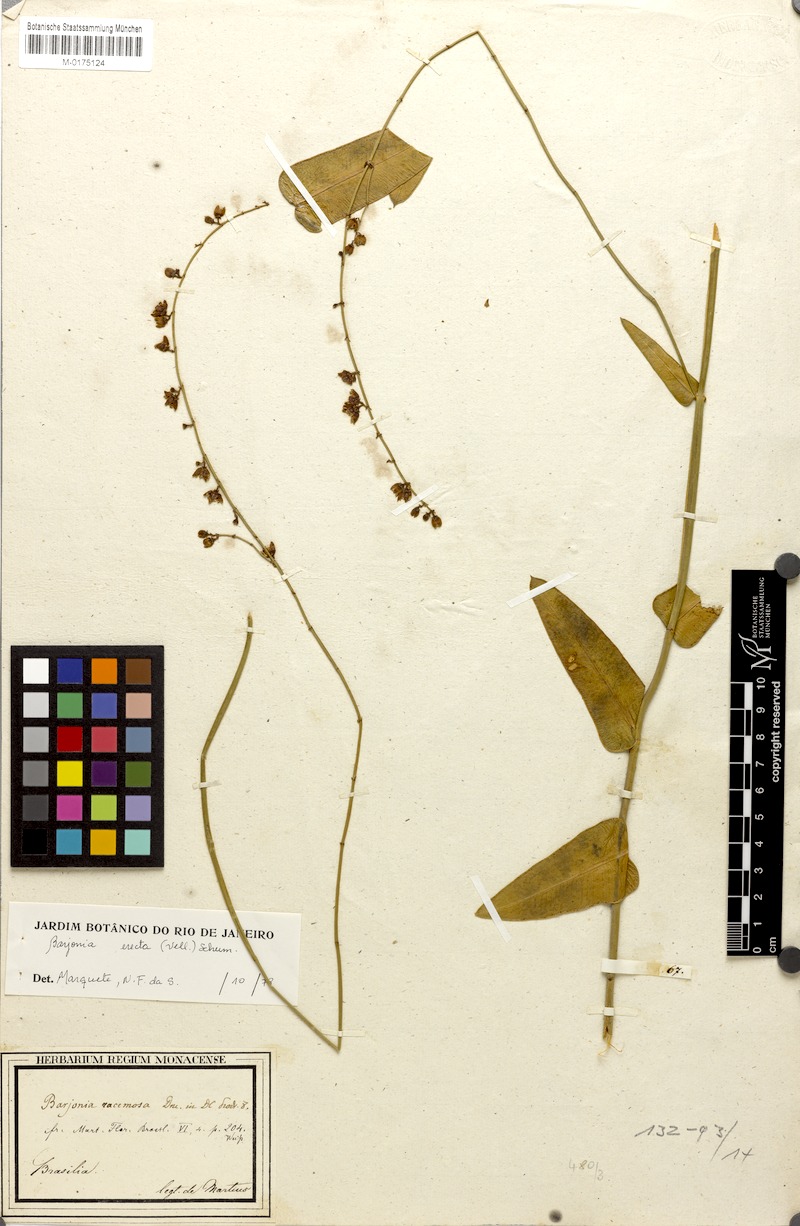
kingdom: Plantae
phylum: Tracheophyta
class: Magnoliopsida
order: Gentianales
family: Apocynaceae
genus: Barjonia
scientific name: Barjonia erecta
